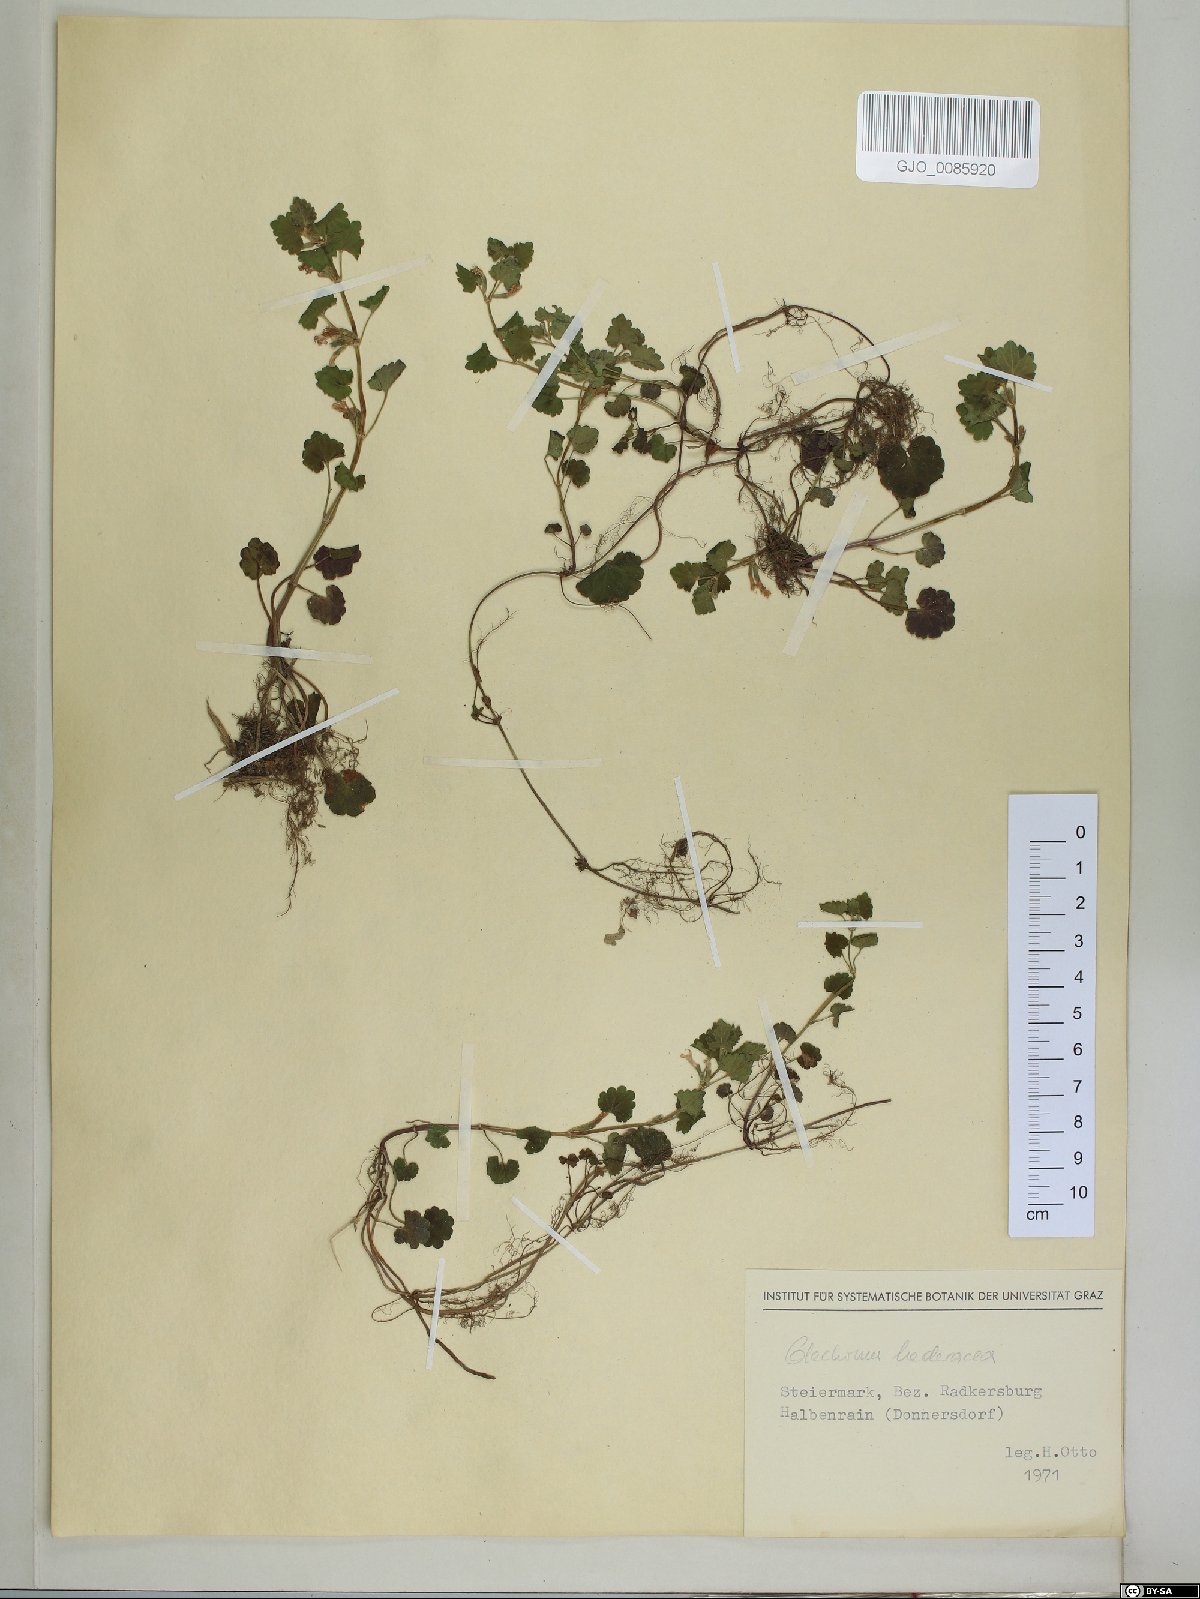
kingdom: Plantae
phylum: Tracheophyta
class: Magnoliopsida
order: Lamiales
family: Lamiaceae
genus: Glechoma
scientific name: Glechoma hederacea
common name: Ground ivy
